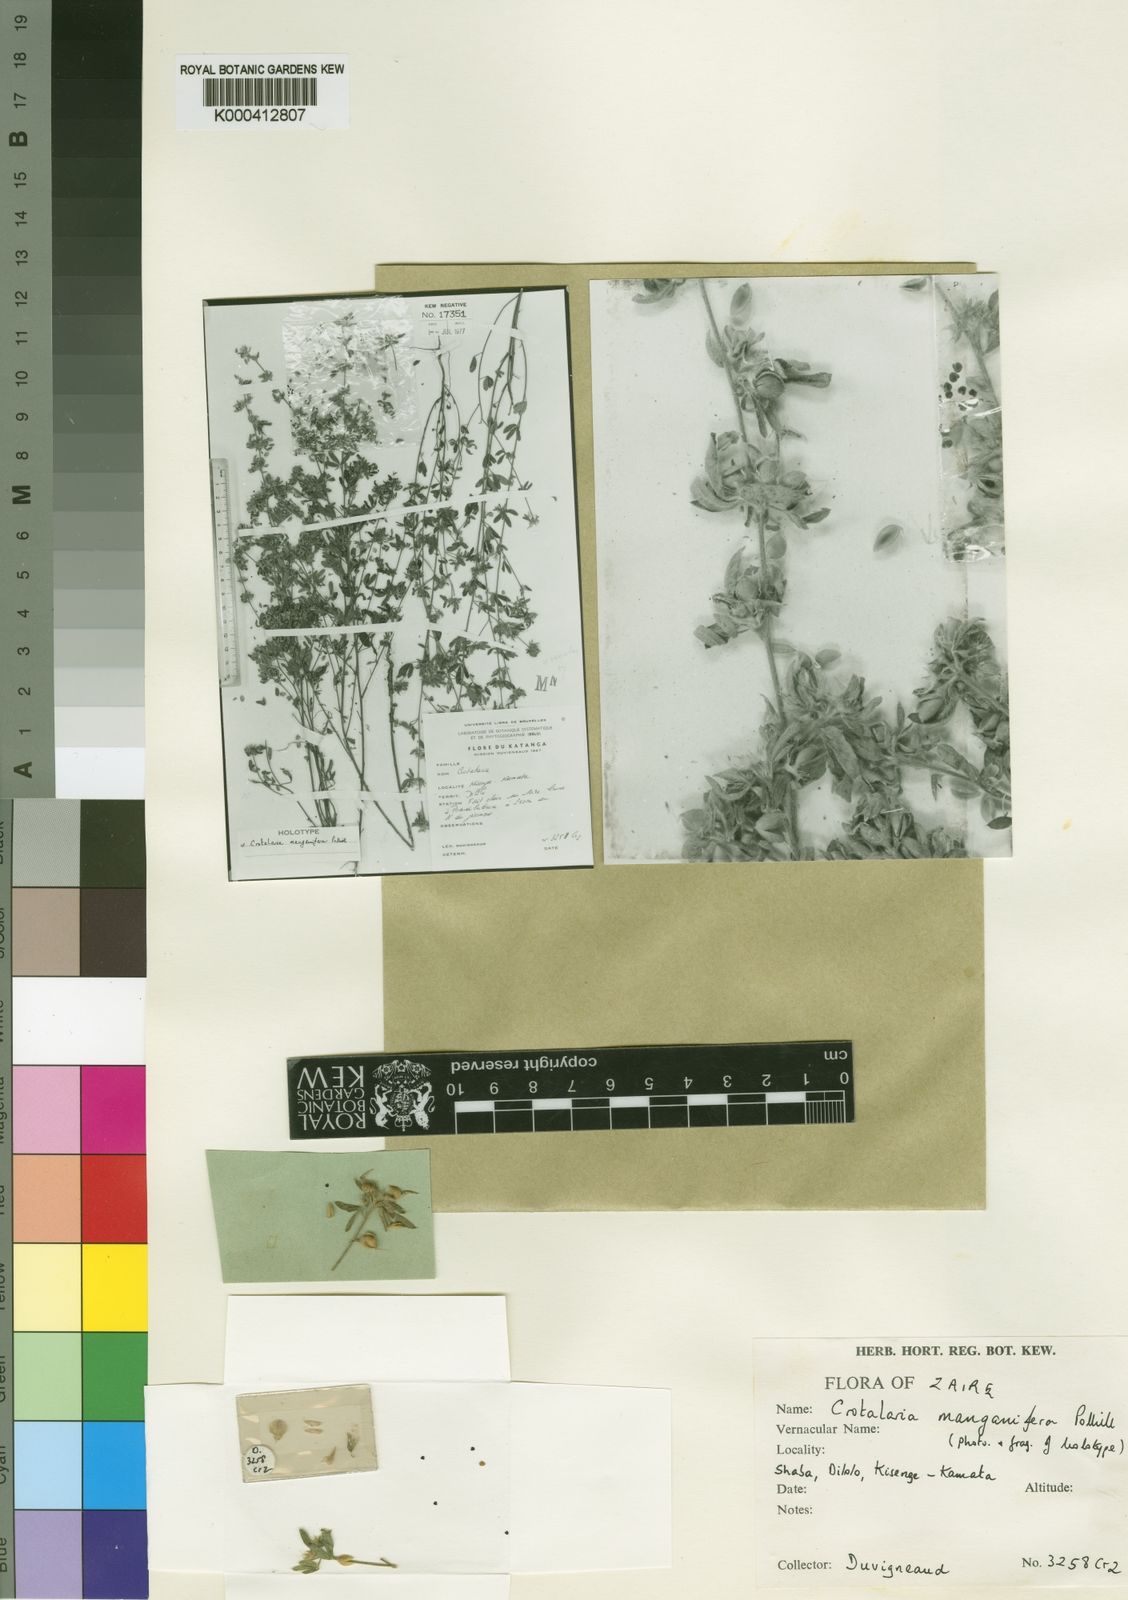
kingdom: Plantae
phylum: Tracheophyta
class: Magnoliopsida
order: Fabales
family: Fabaceae
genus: Crotalaria
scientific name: Crotalaria manganifera
